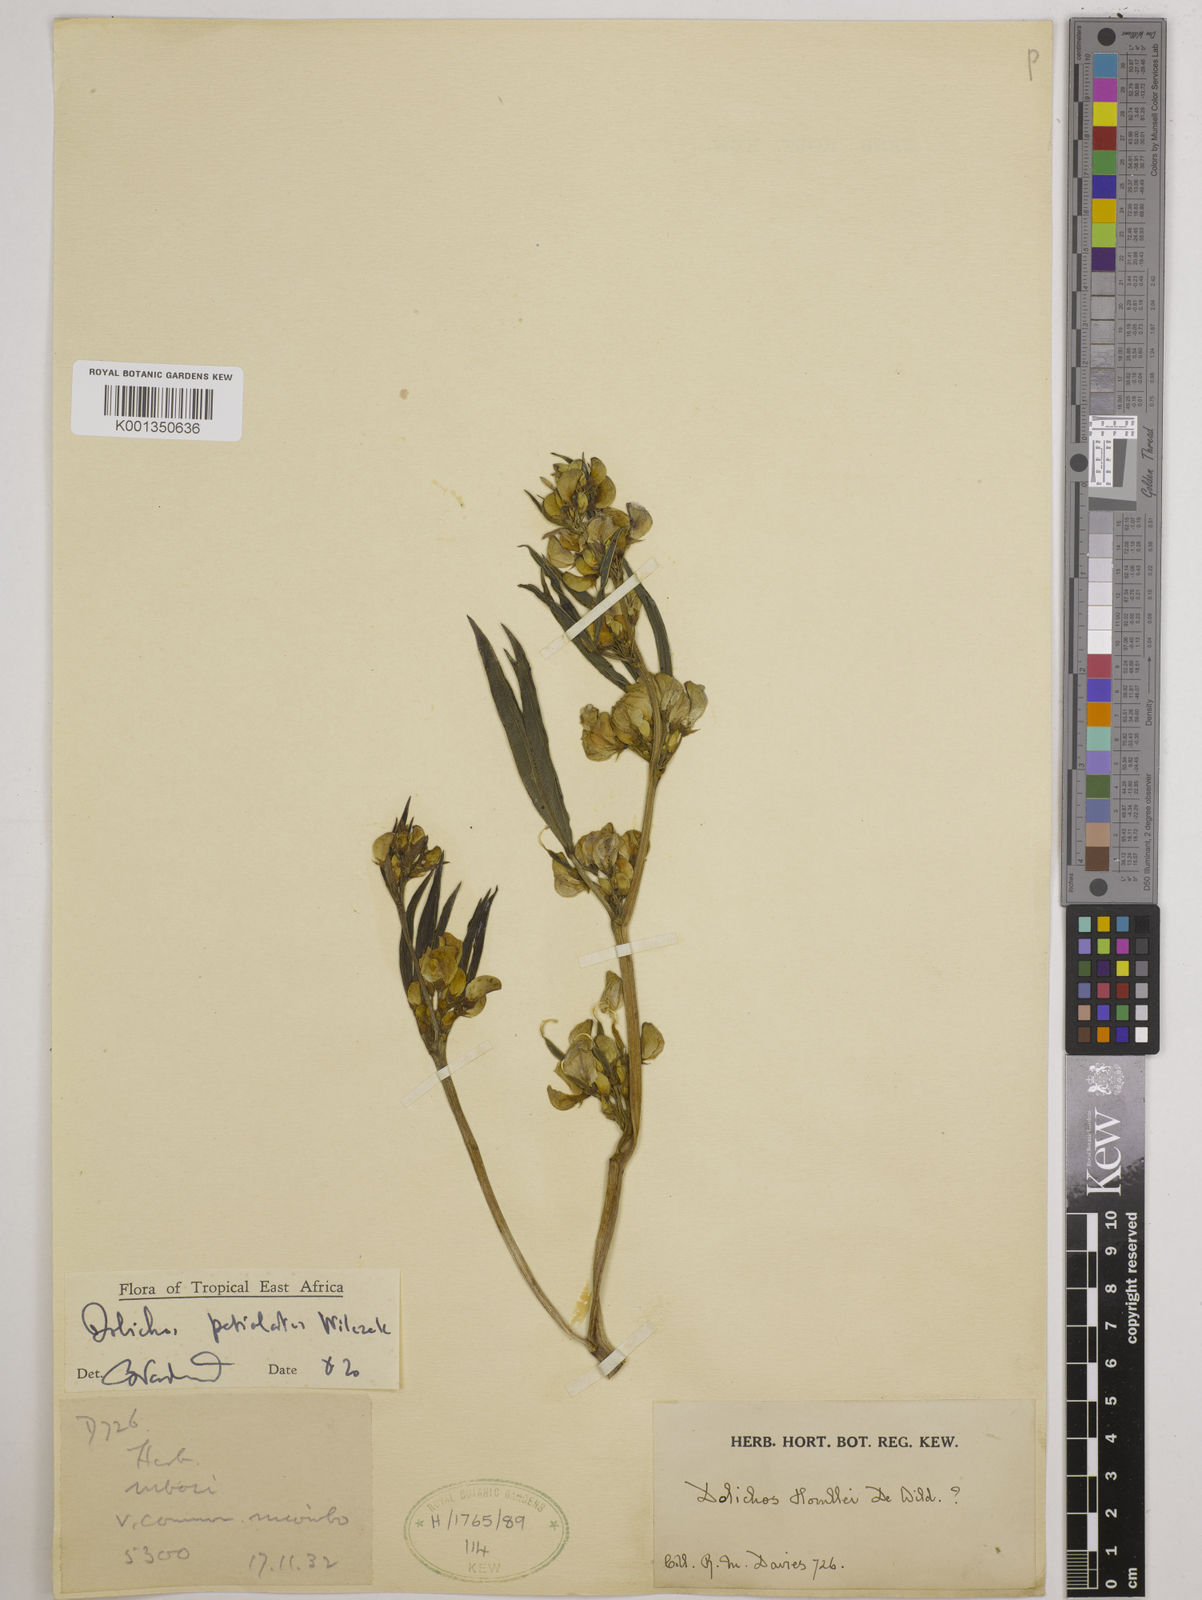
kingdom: Plantae
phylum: Tracheophyta
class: Magnoliopsida
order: Fabales
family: Fabaceae
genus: Dolichos
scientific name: Dolichos petiolatus
